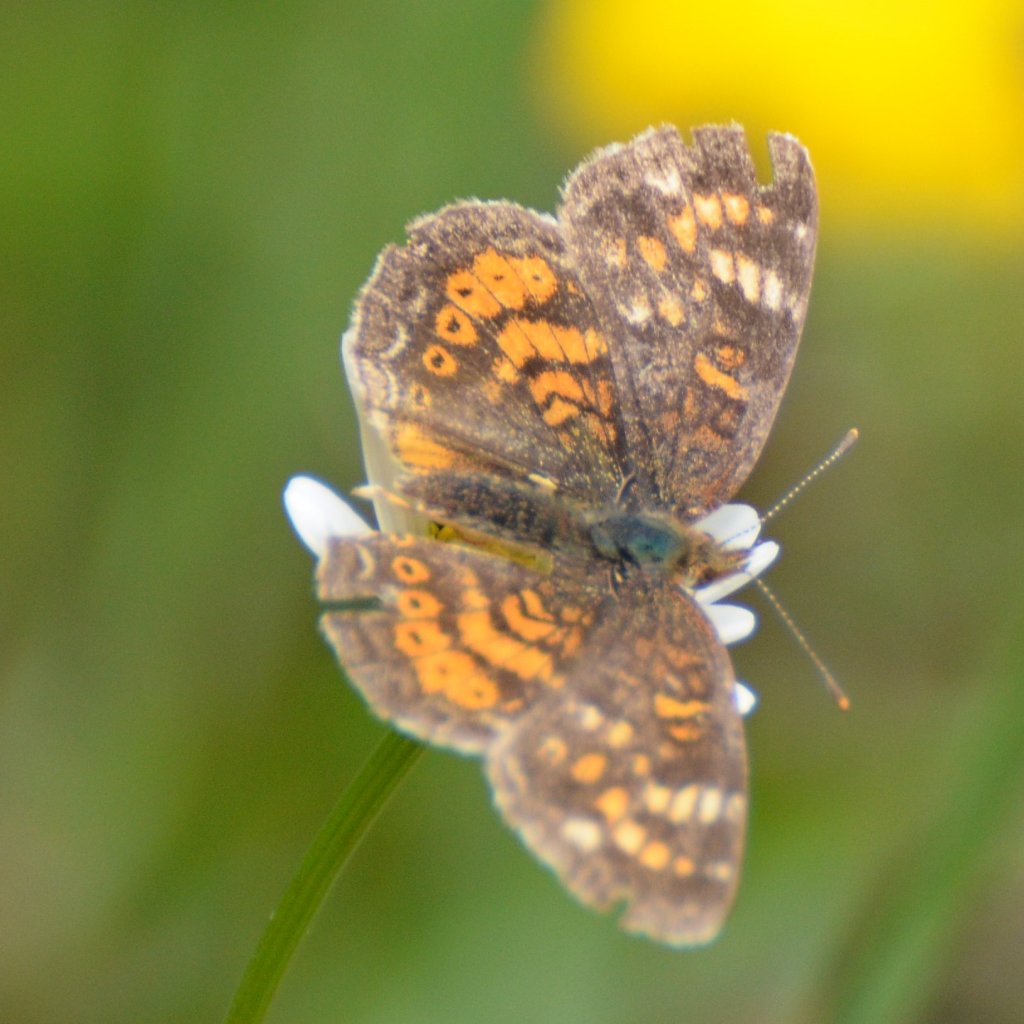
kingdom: Animalia
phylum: Arthropoda
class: Insecta
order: Lepidoptera
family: Nymphalidae
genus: Phyciodes
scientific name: Phyciodes tharos
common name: Northern Crescent
